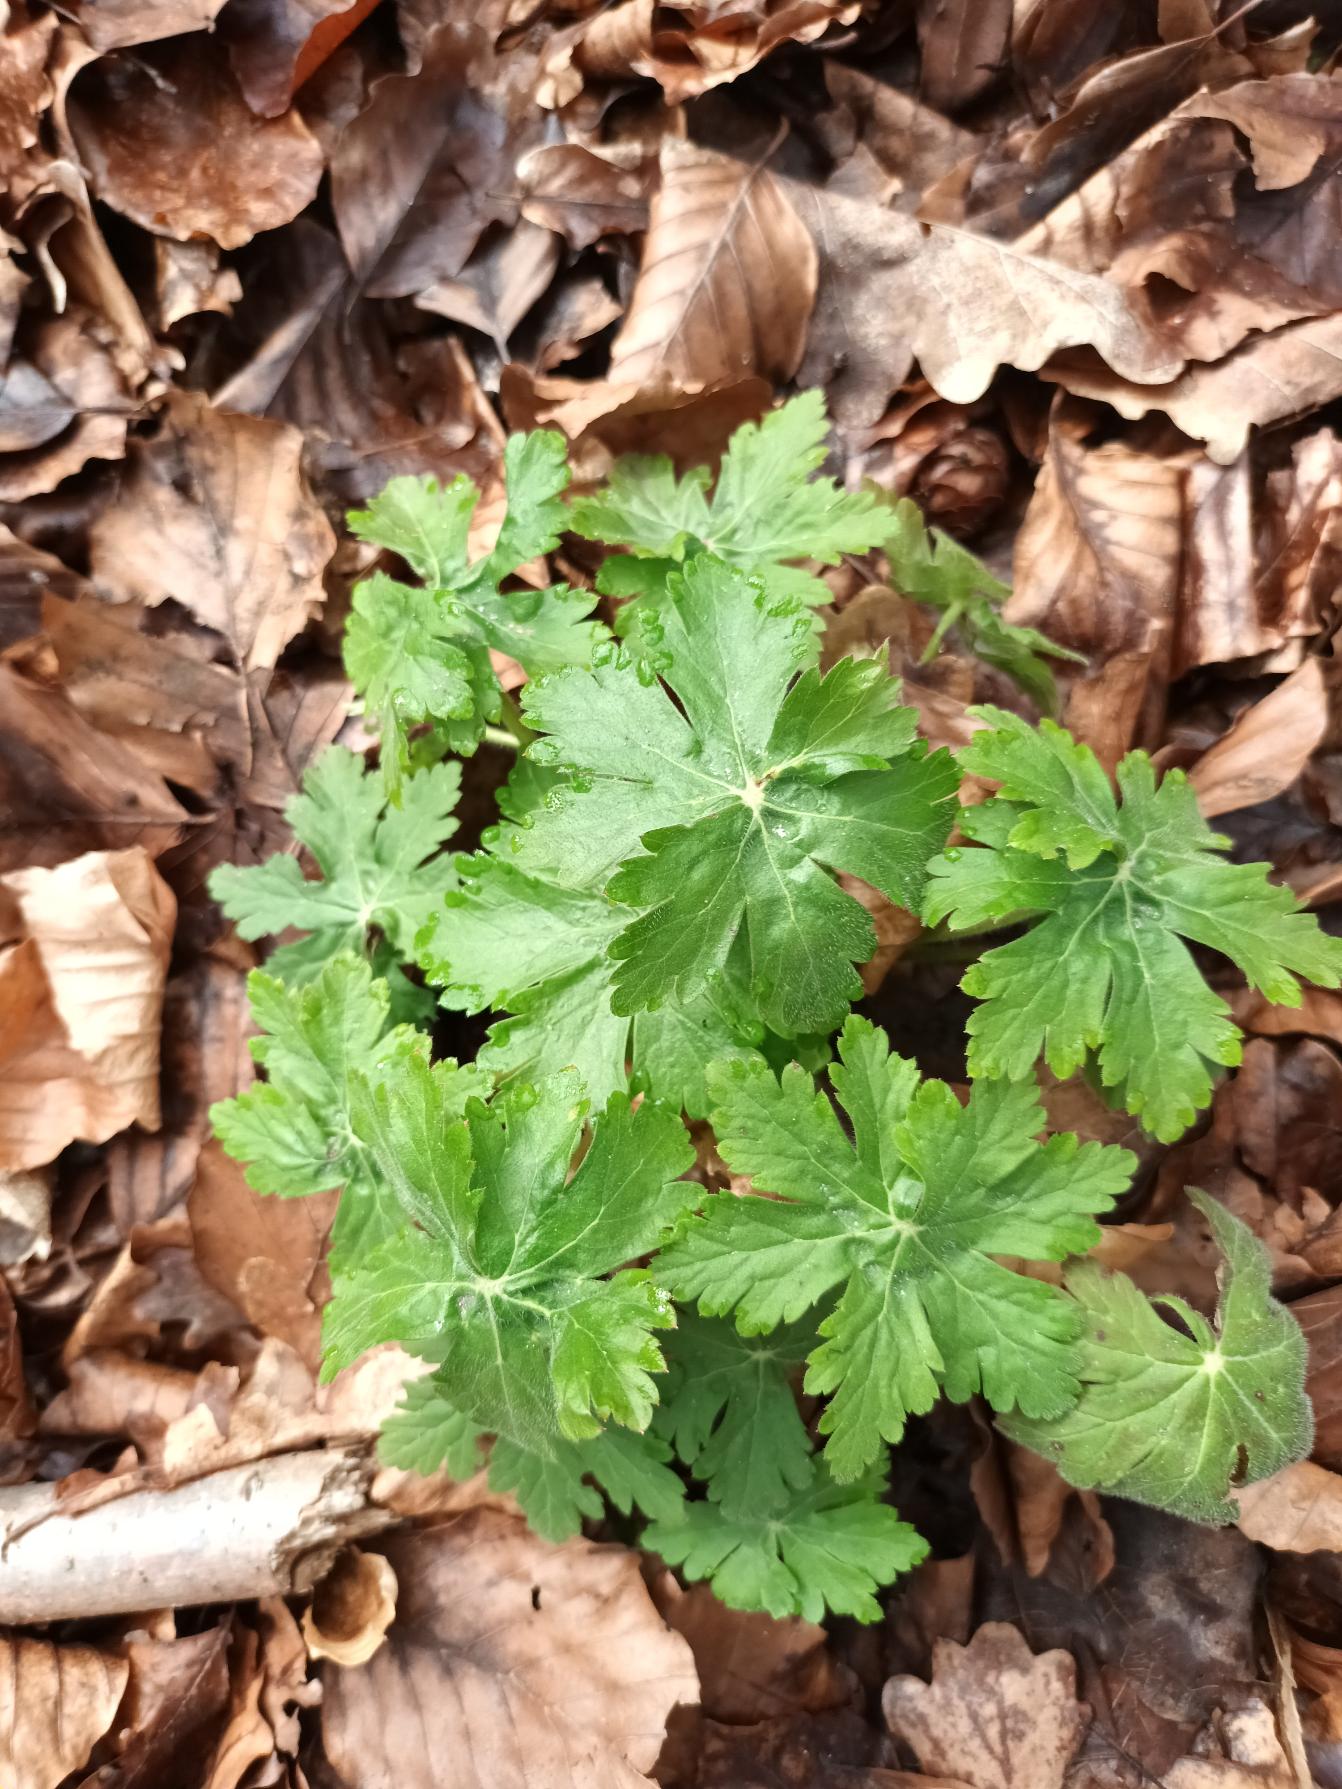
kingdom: Plantae
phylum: Tracheophyta
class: Magnoliopsida
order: Geraniales
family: Geraniaceae
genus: Geranium
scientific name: Geranium macrorrhizum
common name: Storrodet storkenæb
